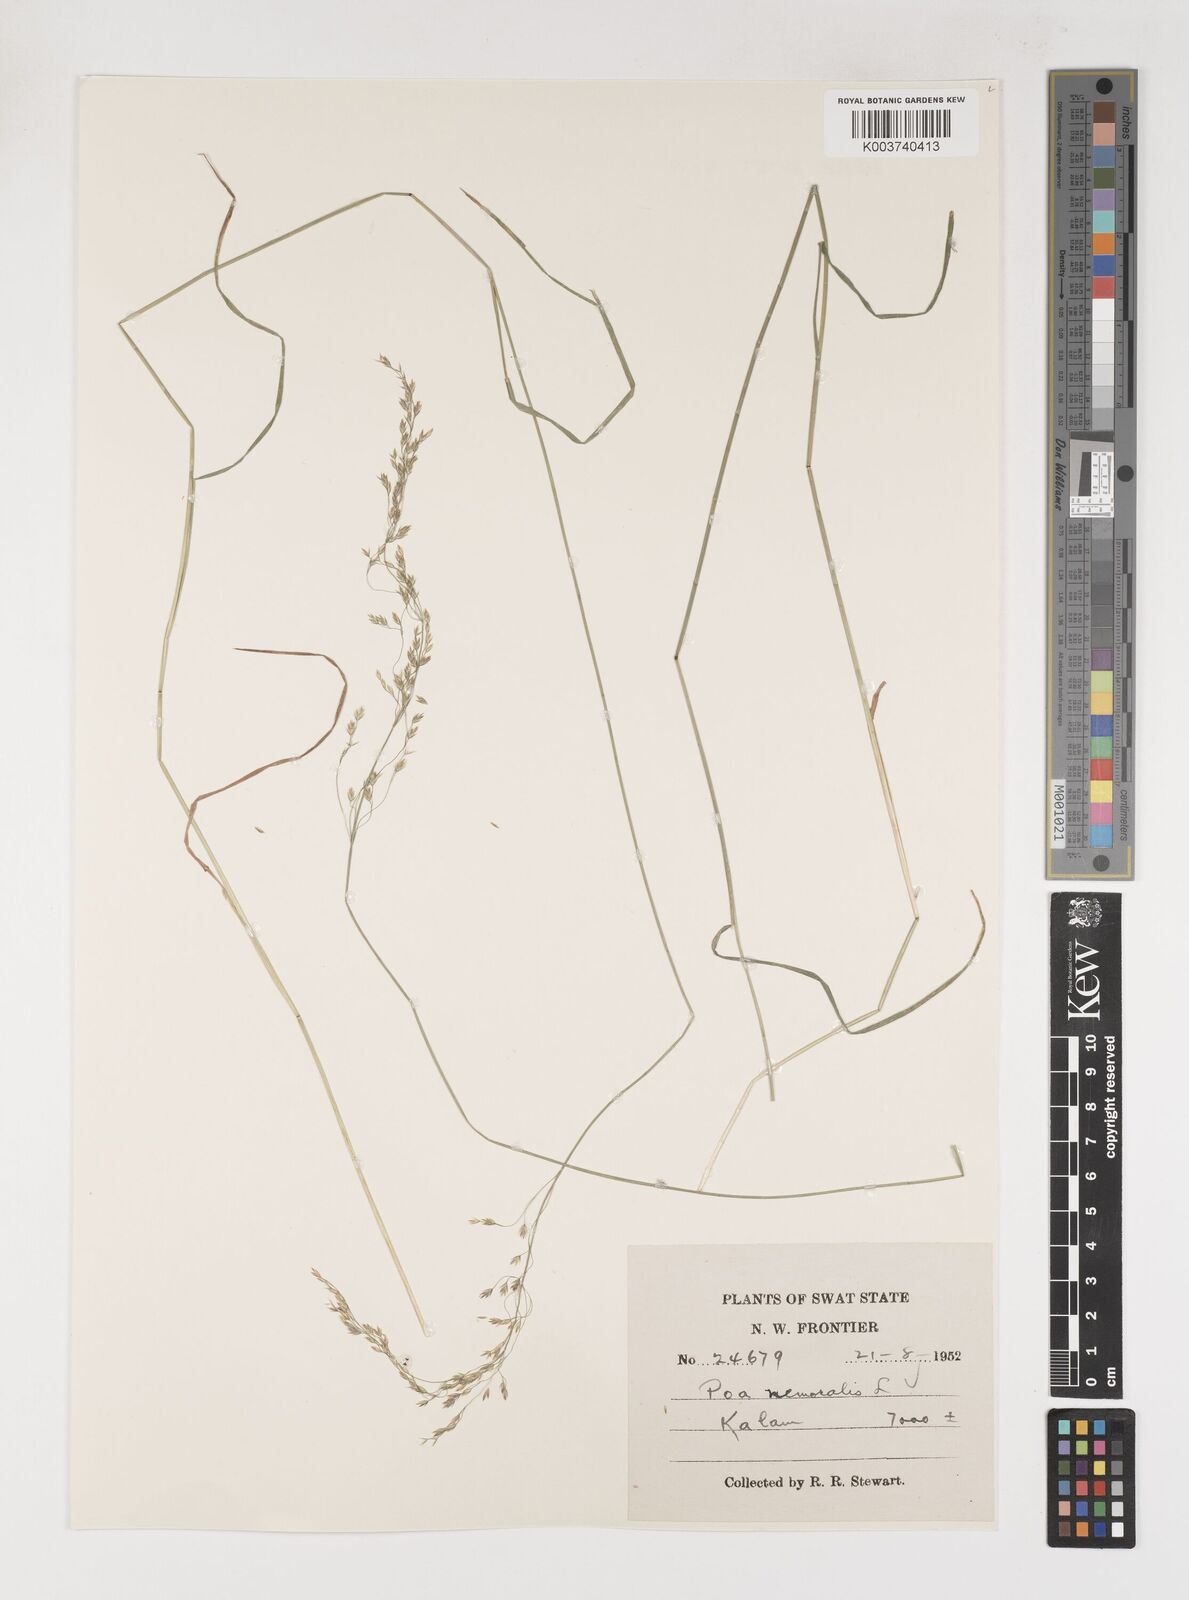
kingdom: Plantae
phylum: Tracheophyta
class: Liliopsida
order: Poales
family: Poaceae
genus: Poa
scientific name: Poa nemoralis
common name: Wood bluegrass
